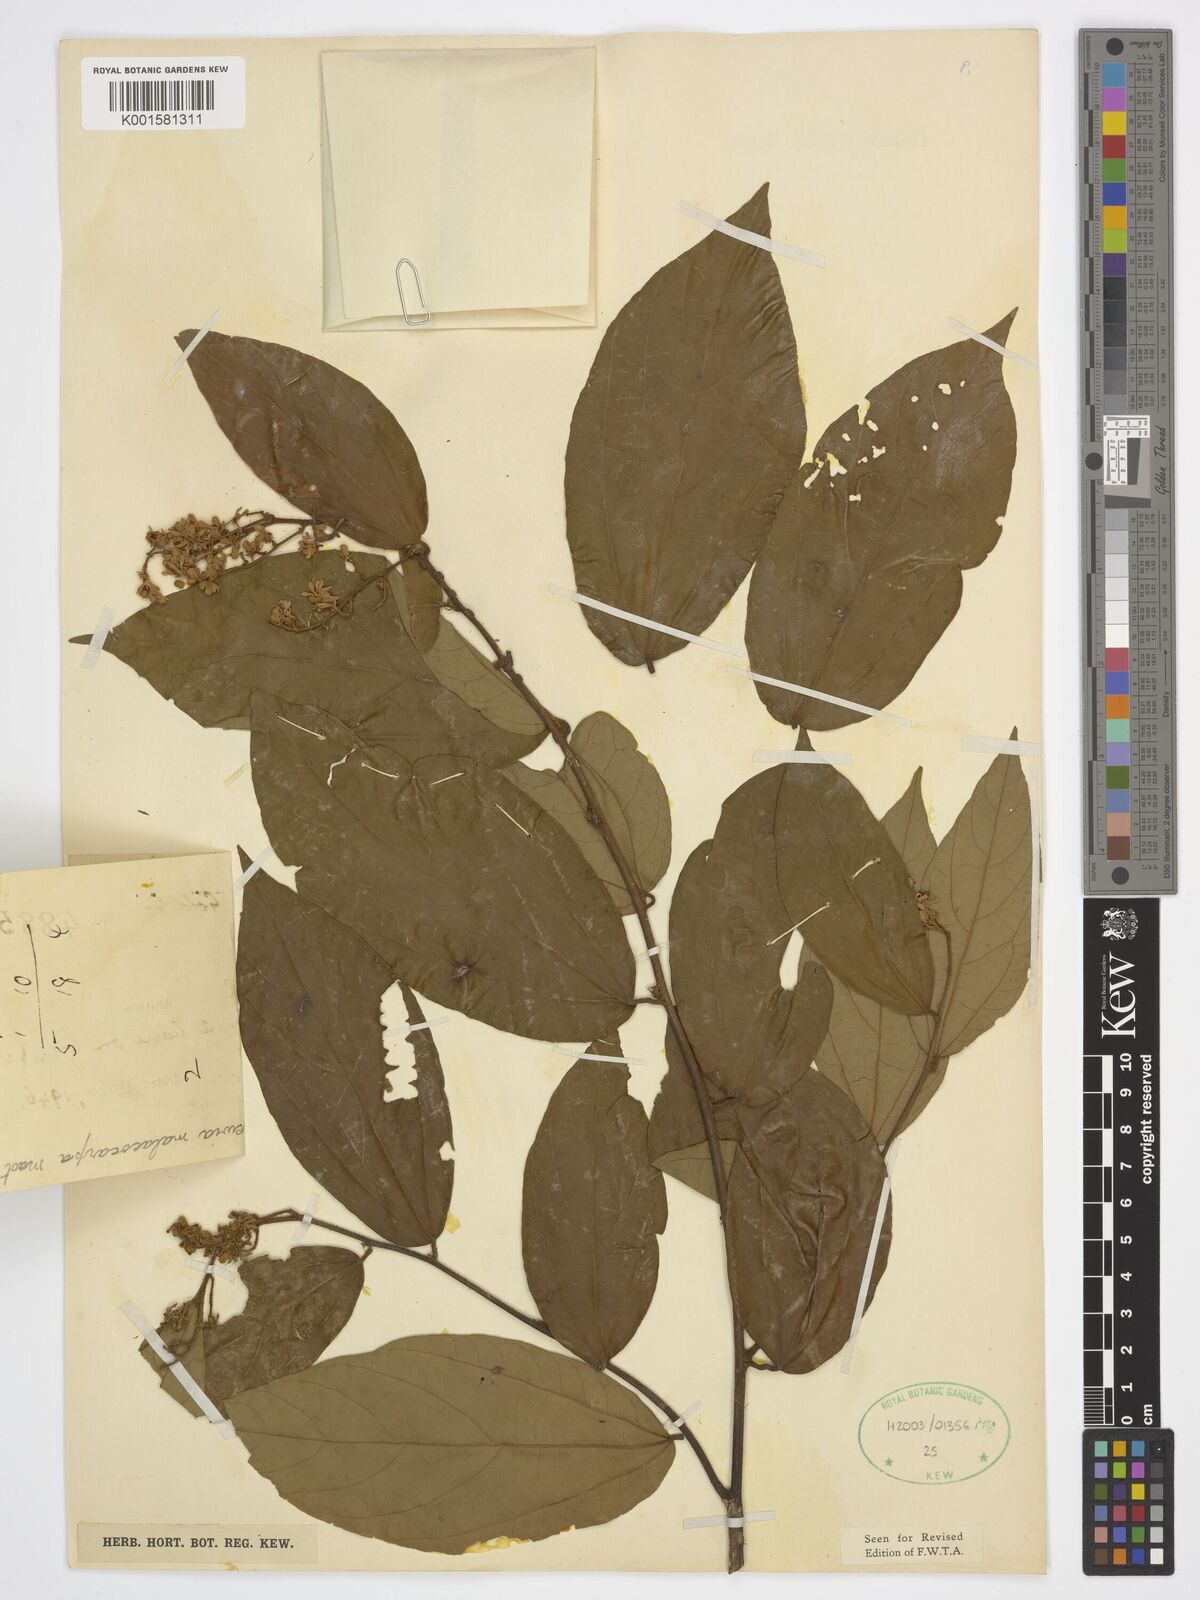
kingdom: Plantae
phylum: Tracheophyta
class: Magnoliopsida
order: Malvales
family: Malvaceae
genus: Microcos
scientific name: Microcos malacocarpa
